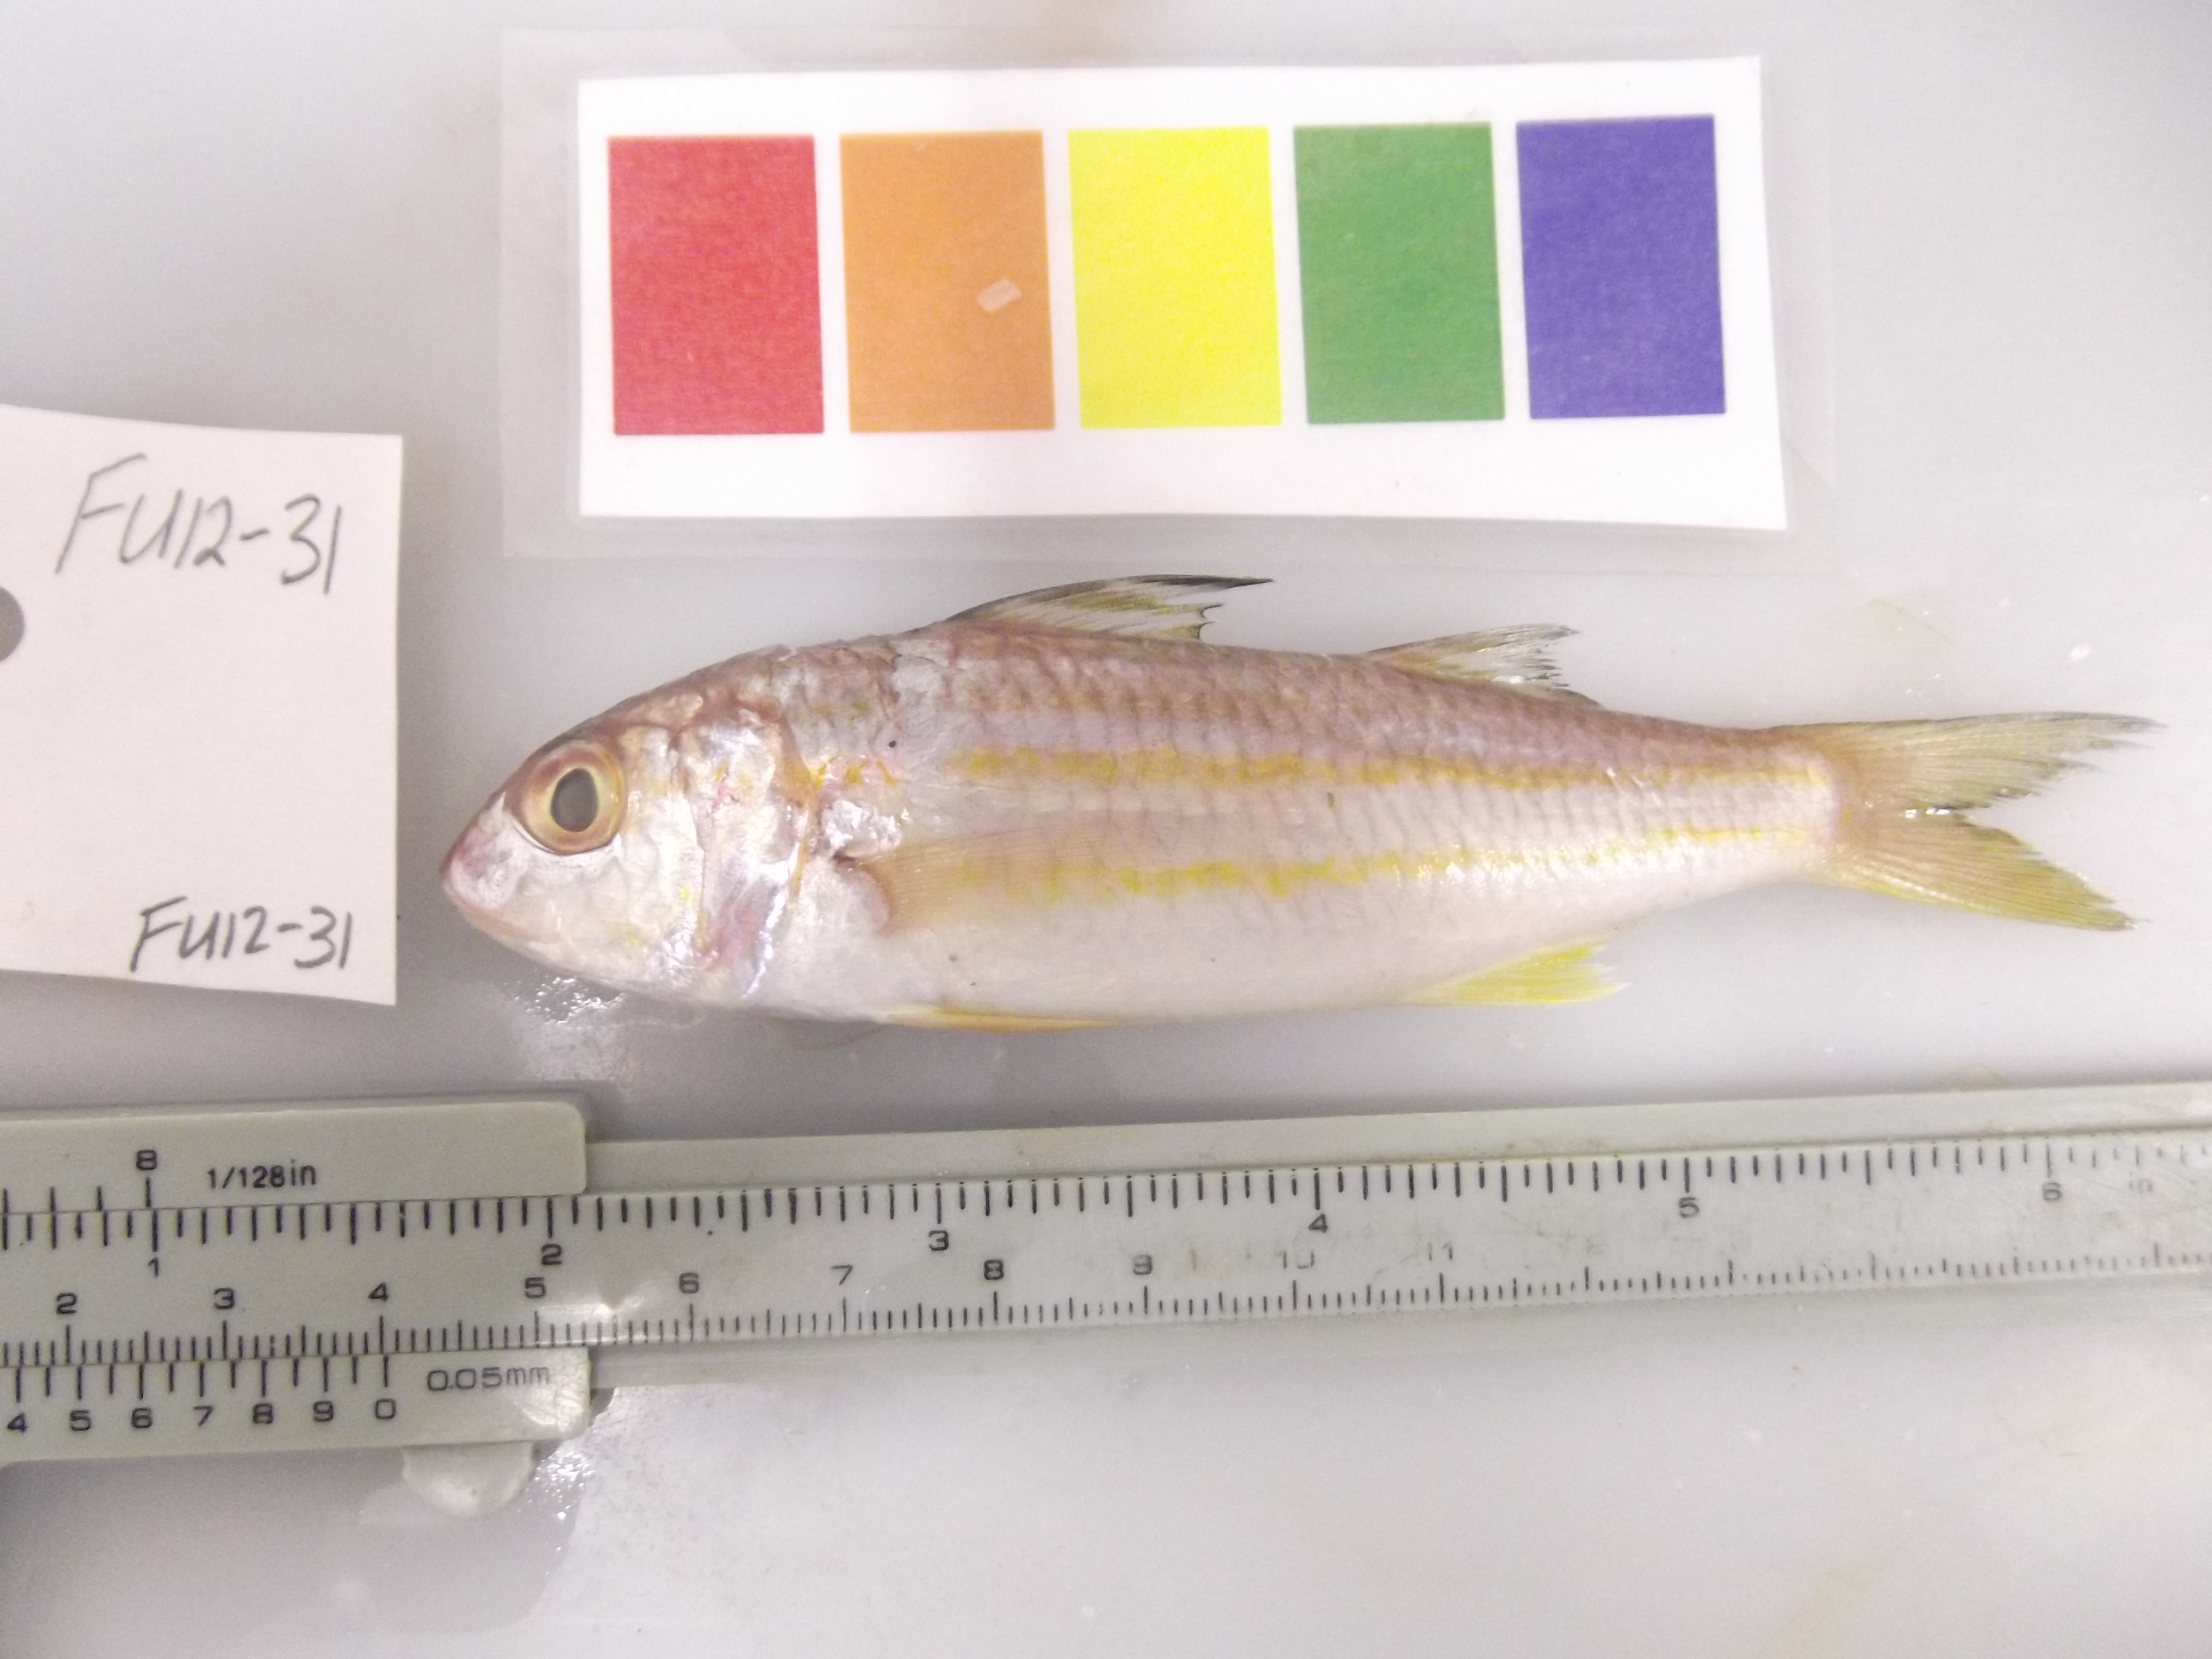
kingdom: Animalia
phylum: Chordata
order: Perciformes
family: Mullidae
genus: Upeneus
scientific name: Upeneus sulphureus
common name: Sulphur goatfish
